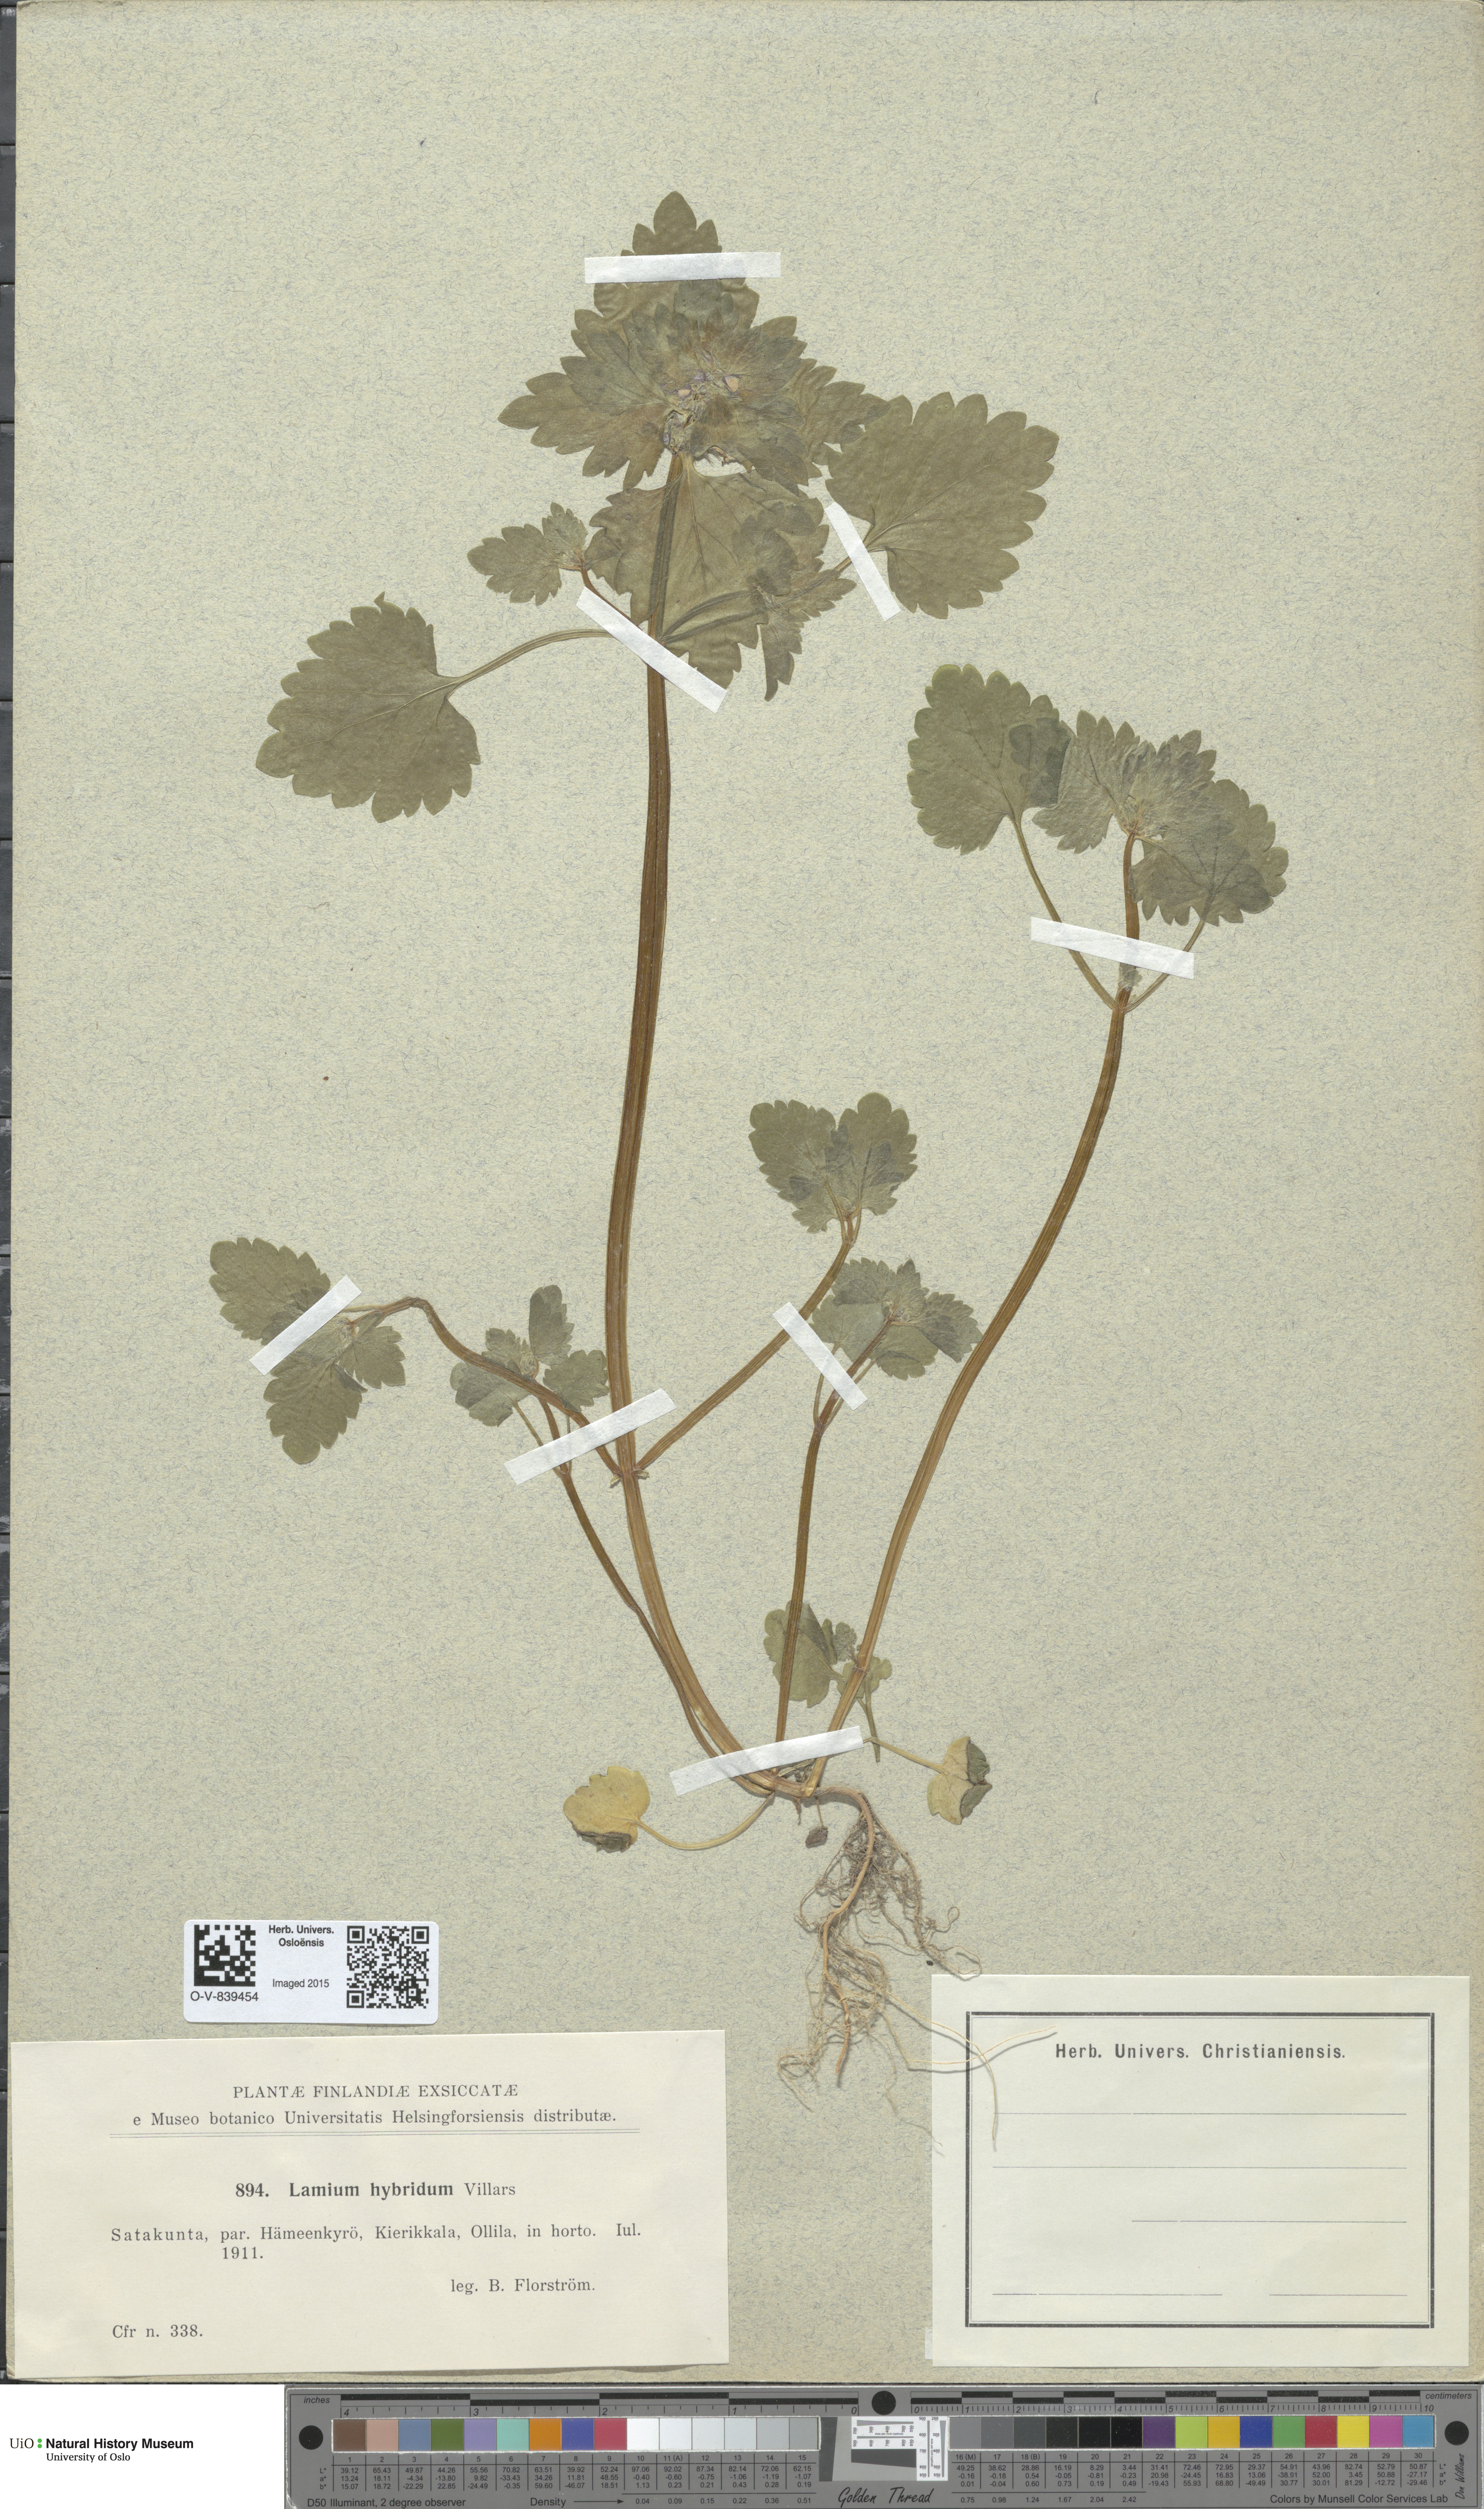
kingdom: Plantae
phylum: Tracheophyta
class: Magnoliopsida
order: Lamiales
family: Lamiaceae
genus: Lamium
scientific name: Lamium hybridum
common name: Cut-leaved dead-nettle
